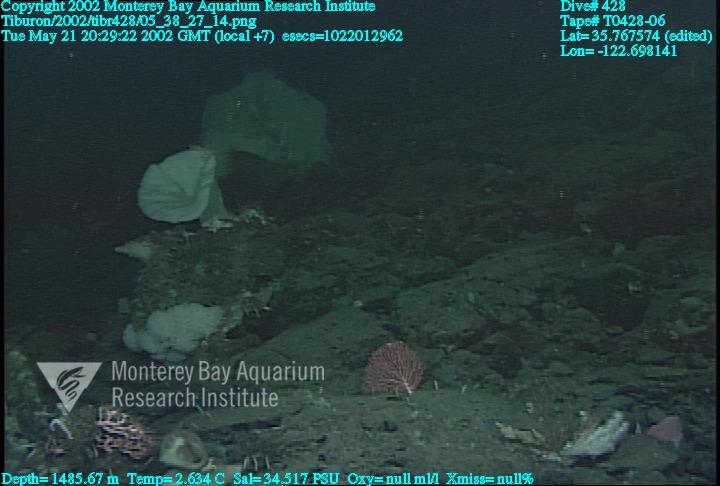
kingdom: Animalia
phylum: Porifera
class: Hexactinellida
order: Sceptrulophora
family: Euretidae
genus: Chonelasma
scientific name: Chonelasma
